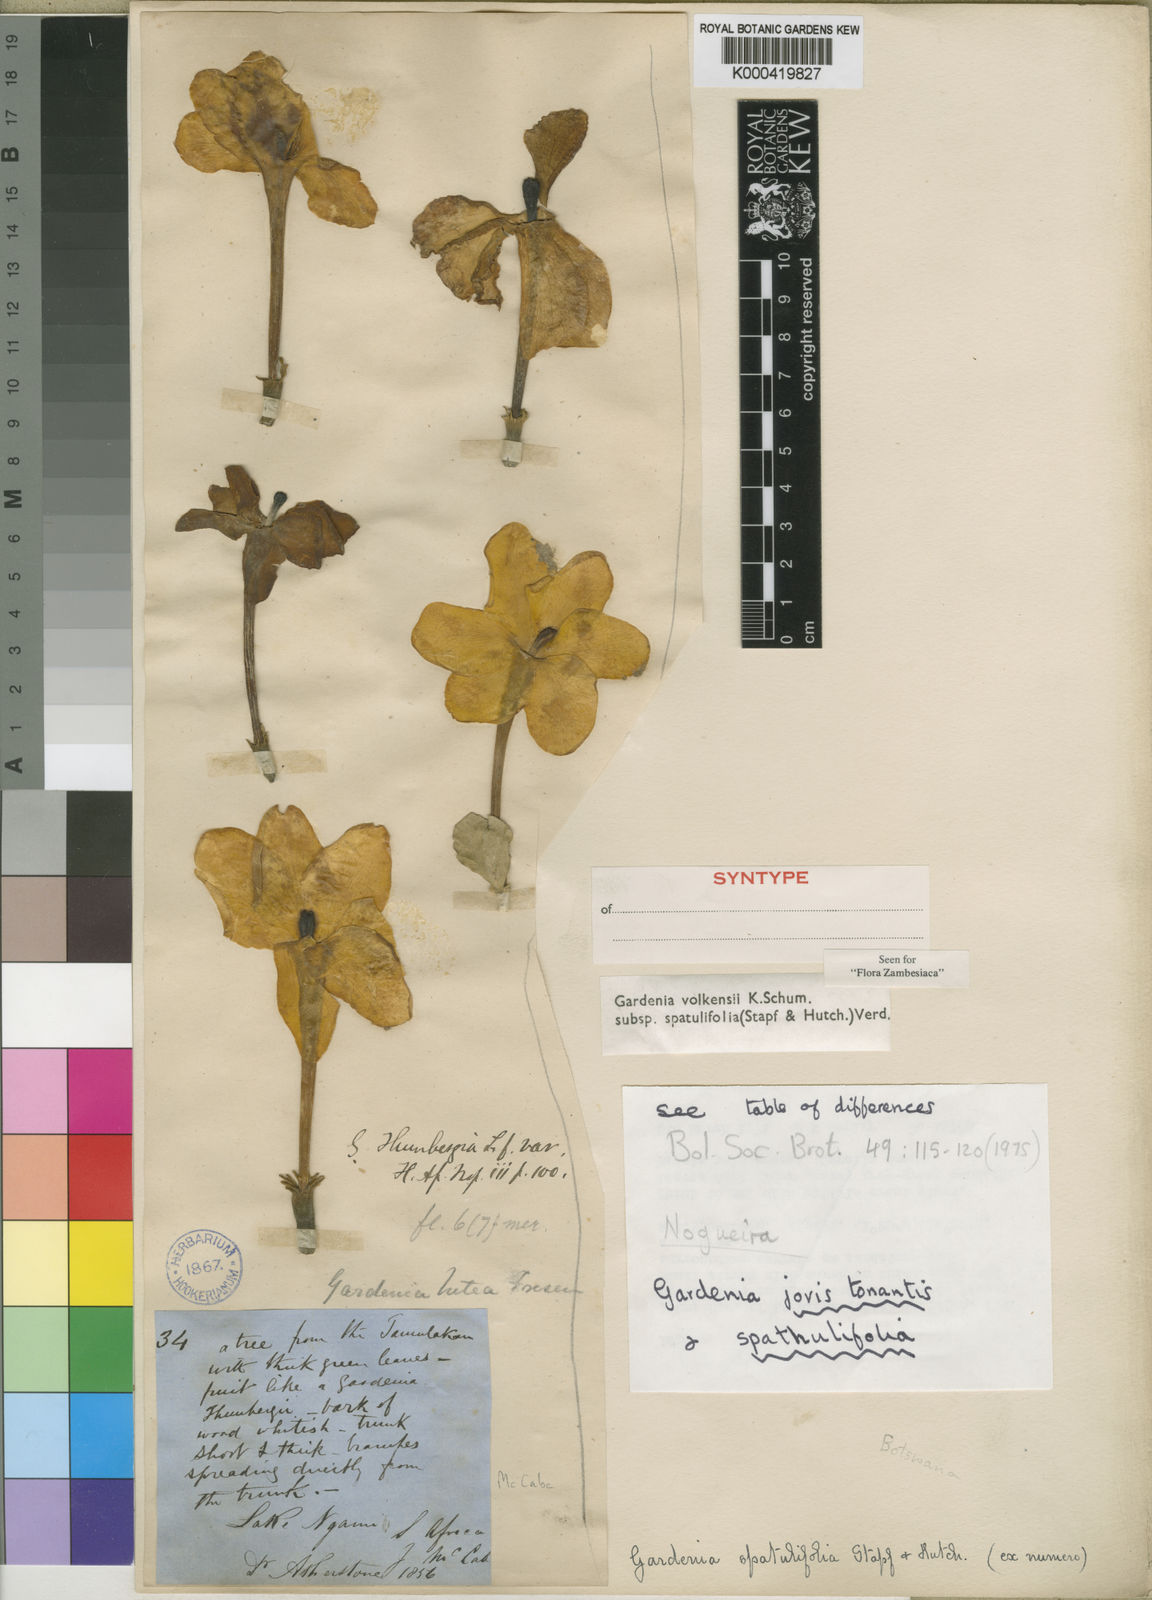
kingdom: Plantae
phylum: Tracheophyta
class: Magnoliopsida
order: Gentianales
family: Rubiaceae
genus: Gardenia
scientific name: Gardenia volkensii
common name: Common gardenia
